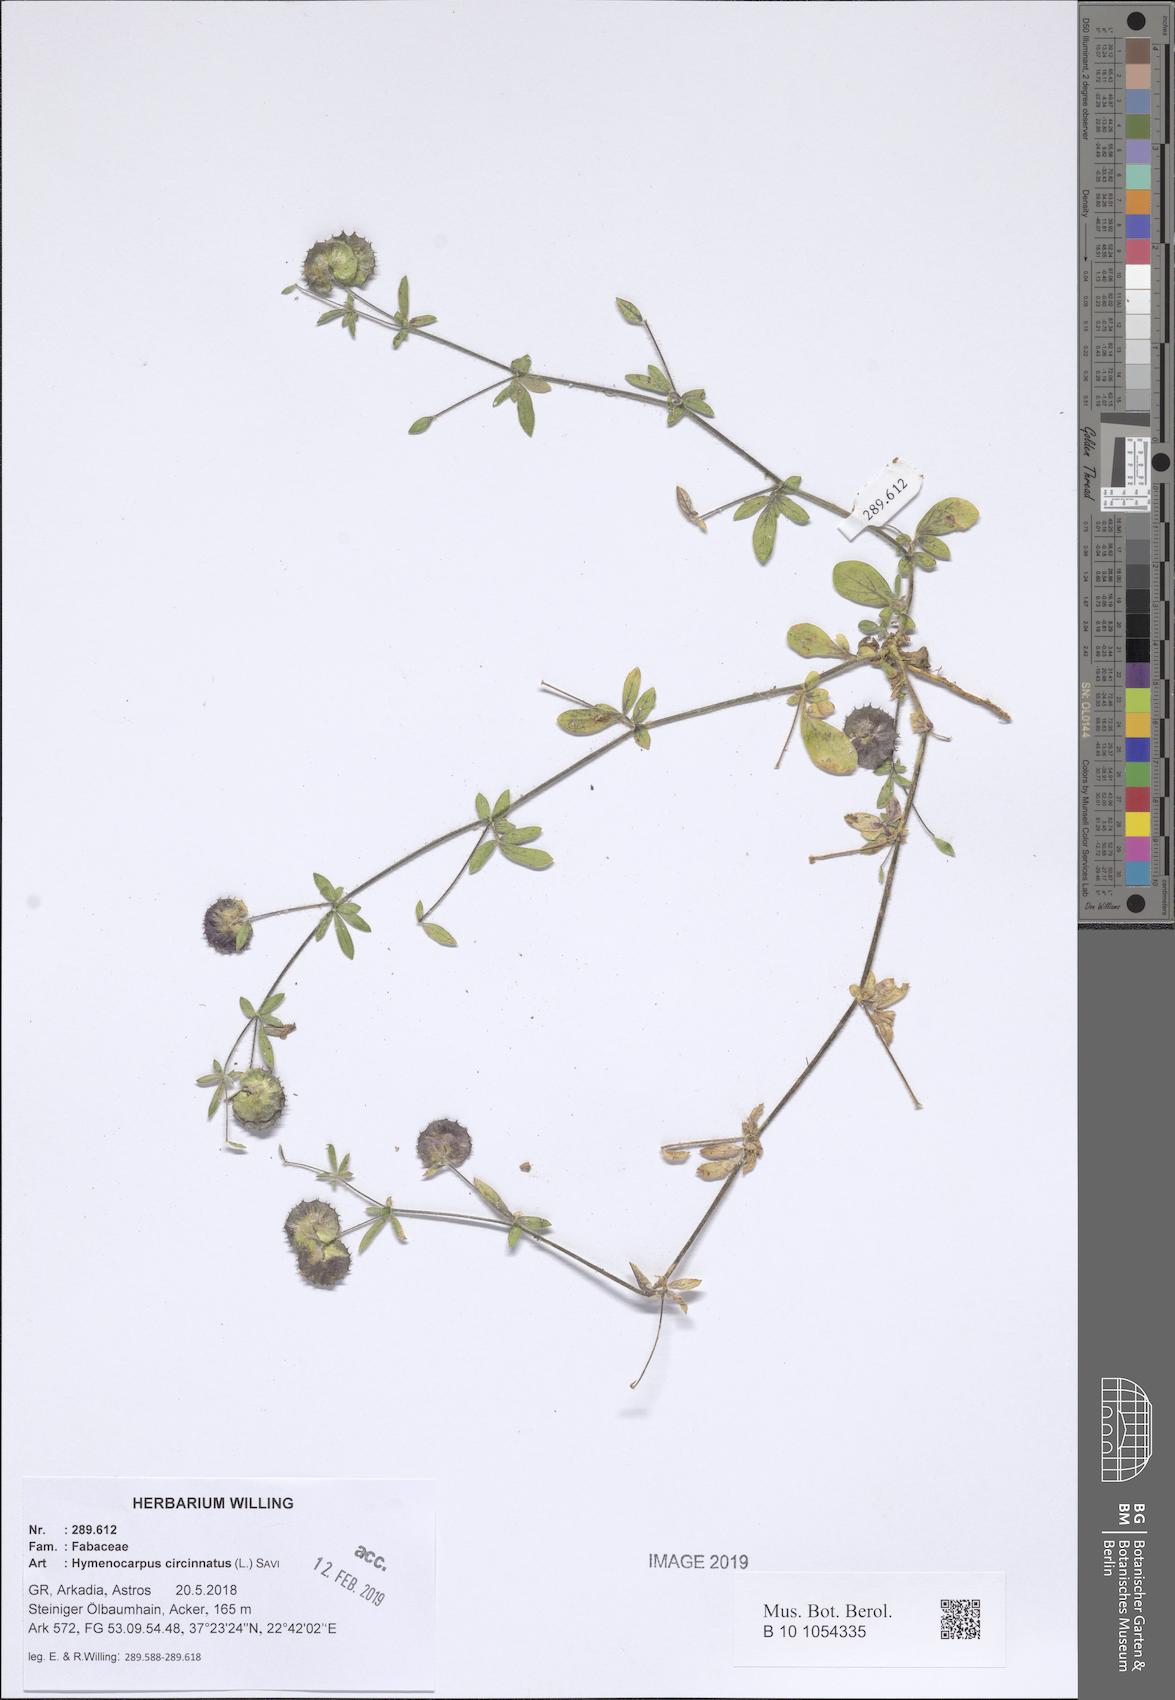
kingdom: Plantae
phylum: Tracheophyta
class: Magnoliopsida
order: Fabales
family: Fabaceae
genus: Anthyllis
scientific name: Anthyllis circinnata
